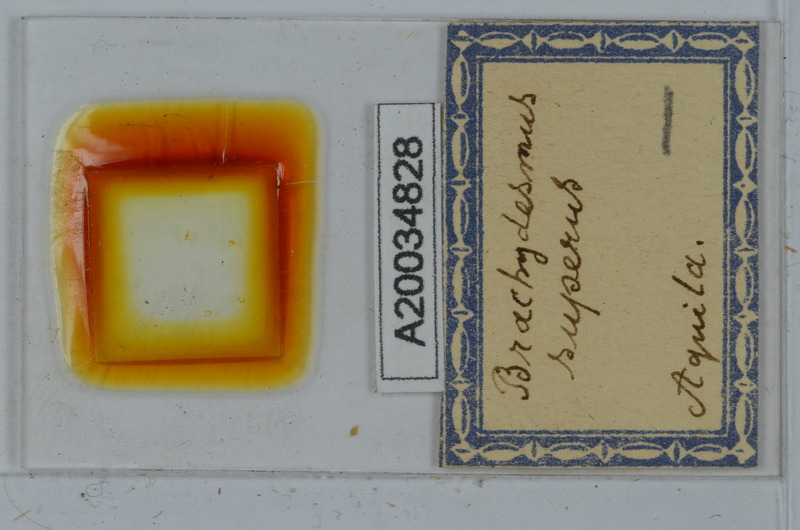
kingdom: Animalia
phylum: Arthropoda
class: Diplopoda
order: Polydesmida
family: Polydesmidae
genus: Brachydesmus
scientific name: Brachydesmus superus
